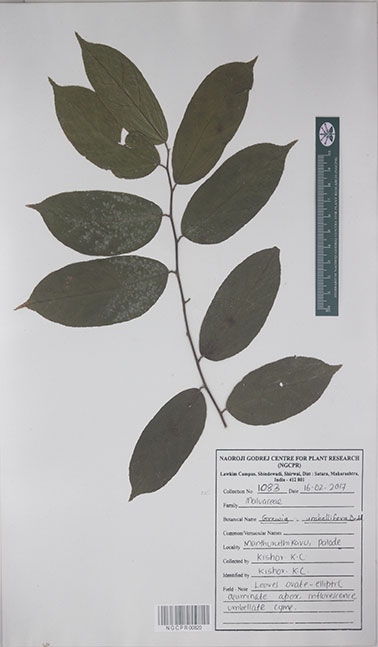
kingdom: Plantae
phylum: Tracheophyta
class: Magnoliopsida
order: Malvales
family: Malvaceae
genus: Grewia
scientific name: Grewia umbellifera
